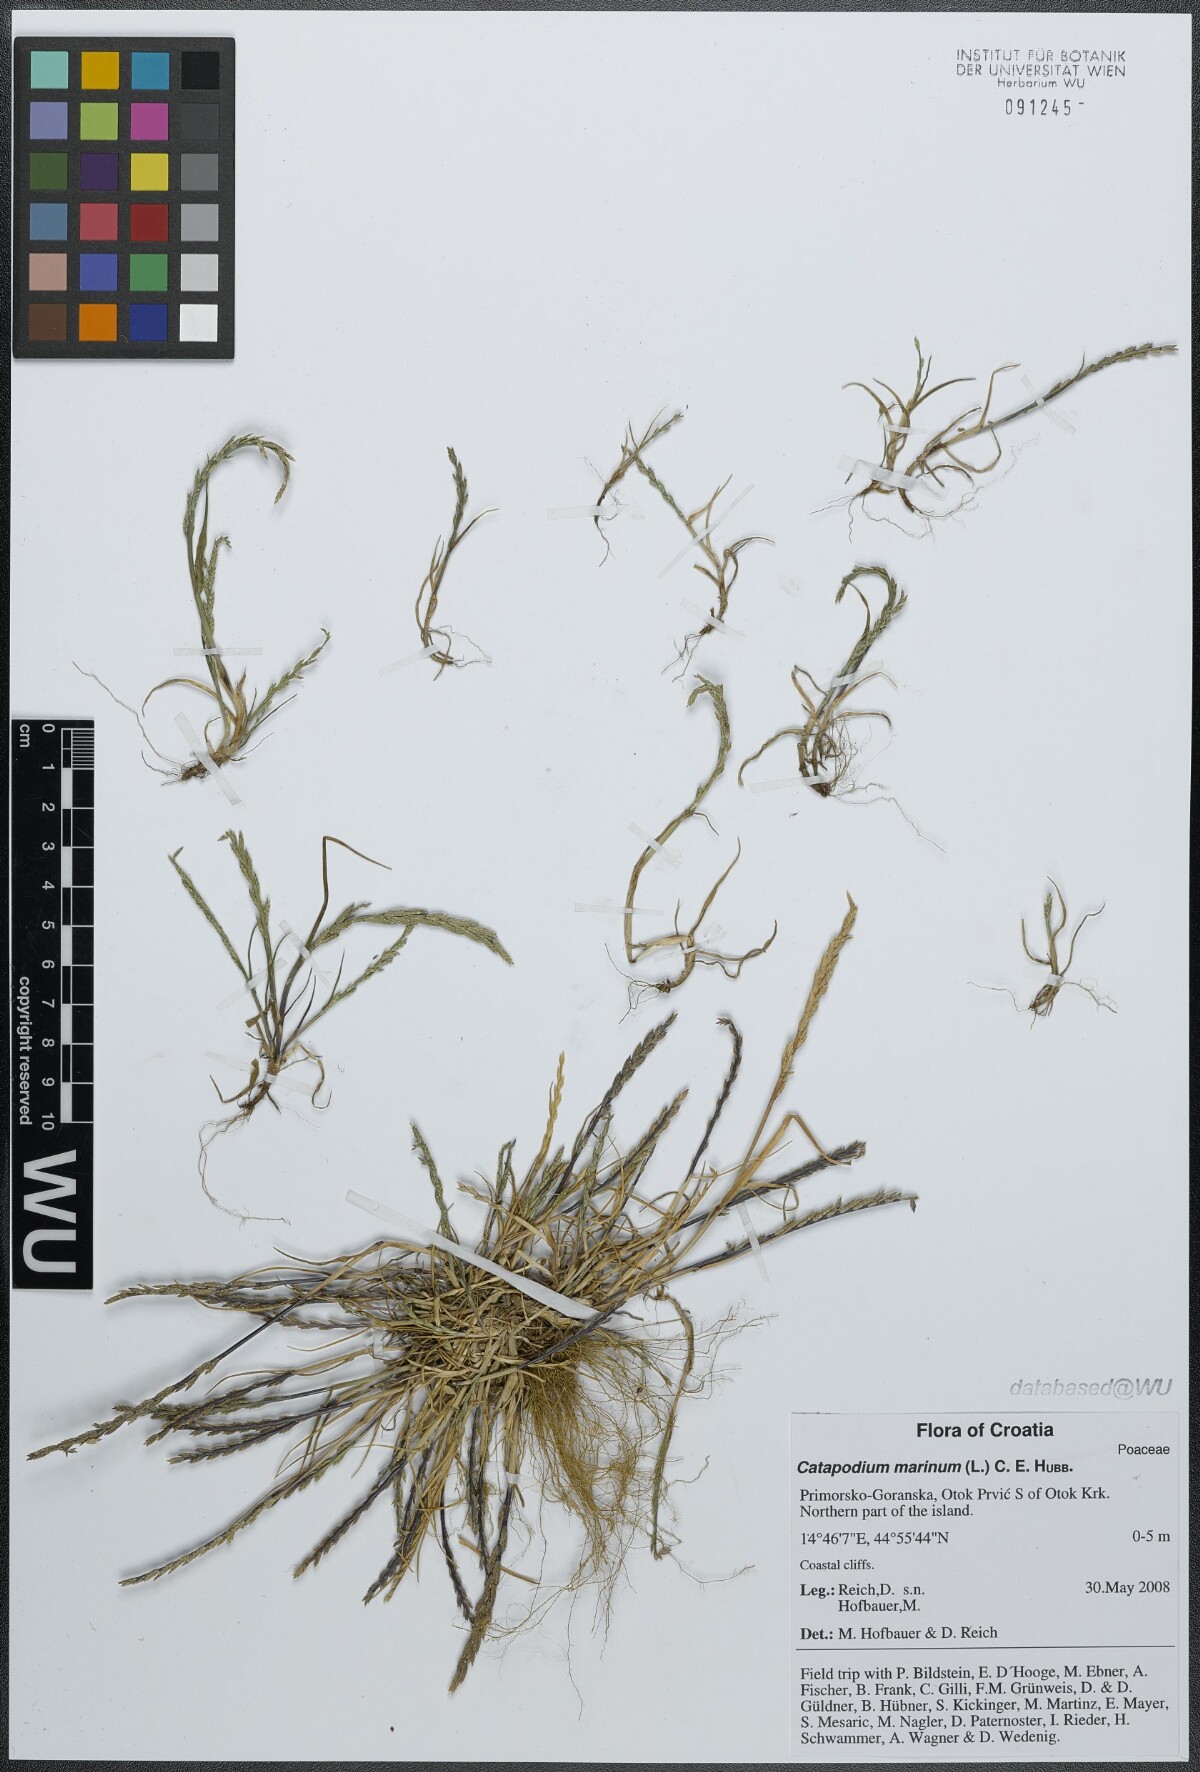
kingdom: Plantae
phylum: Tracheophyta
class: Liliopsida
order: Poales
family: Poaceae
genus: Catapodium
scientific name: Catapodium marinum
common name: Sea fern-grass
